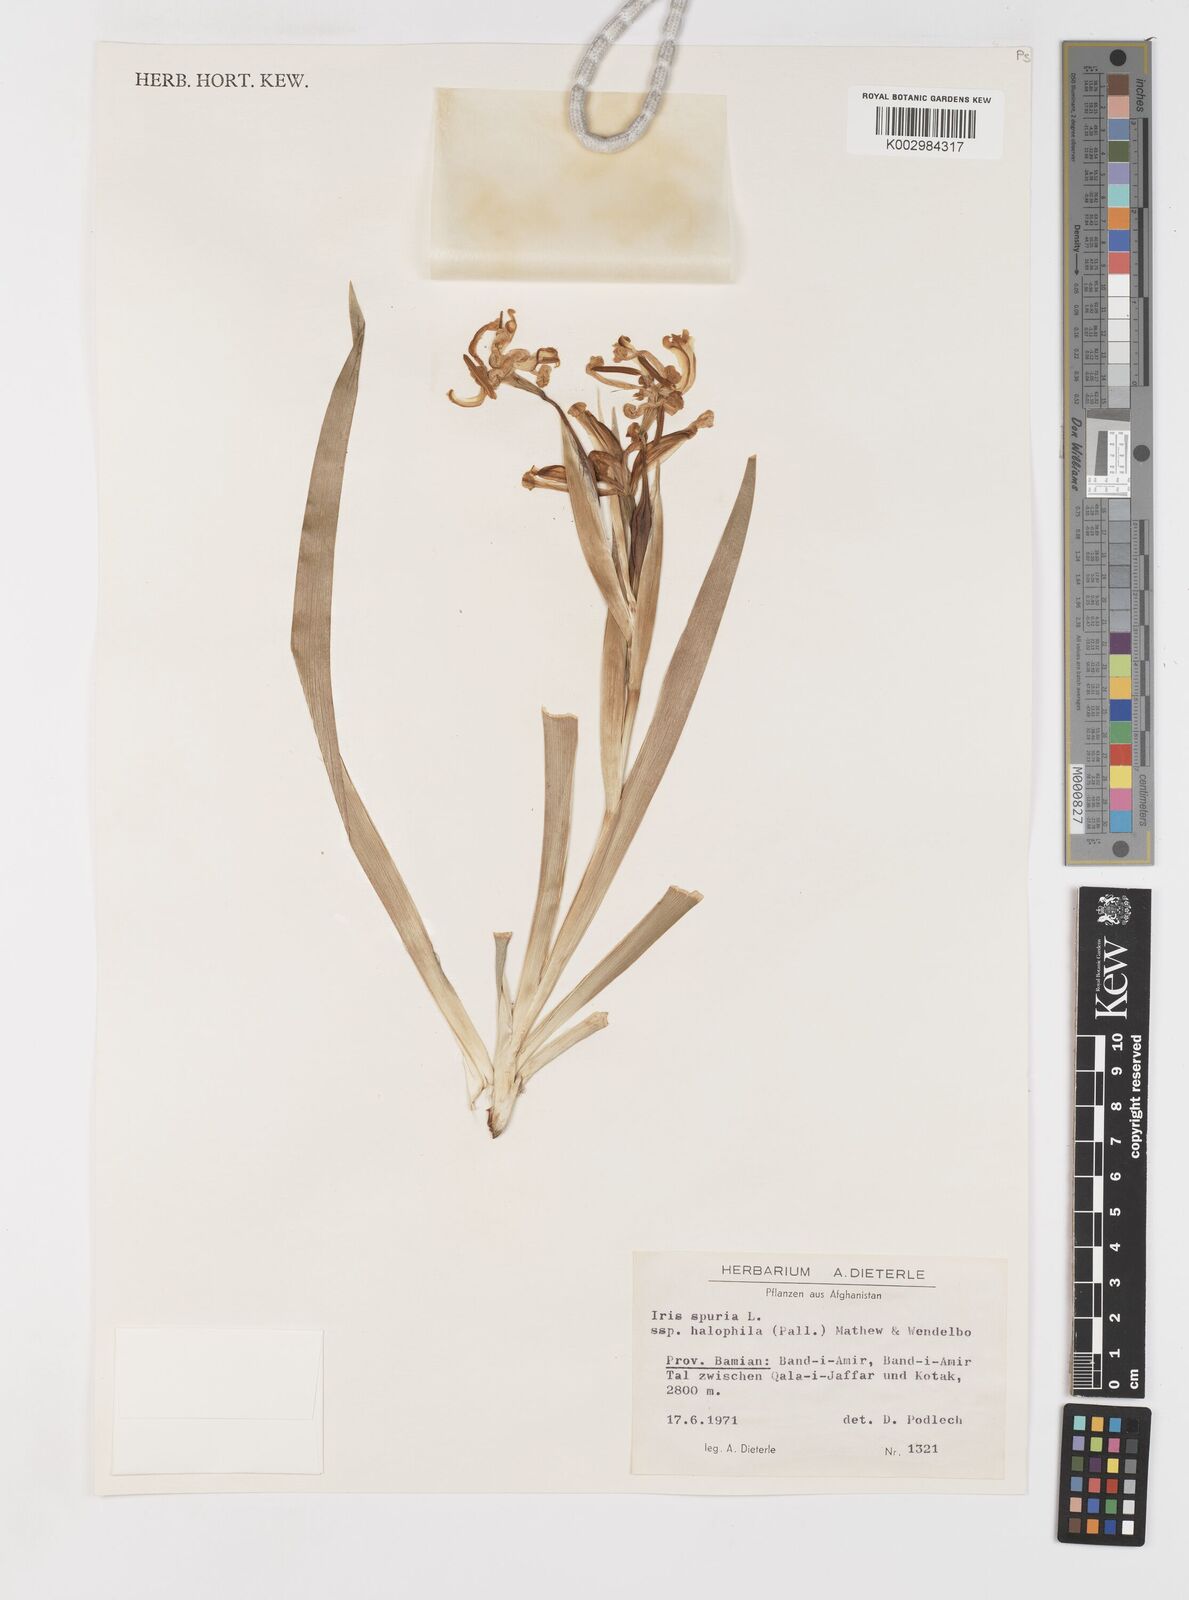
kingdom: Plantae
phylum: Tracheophyta
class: Liliopsida
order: Asparagales
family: Iridaceae
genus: Iris
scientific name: Iris halophila
